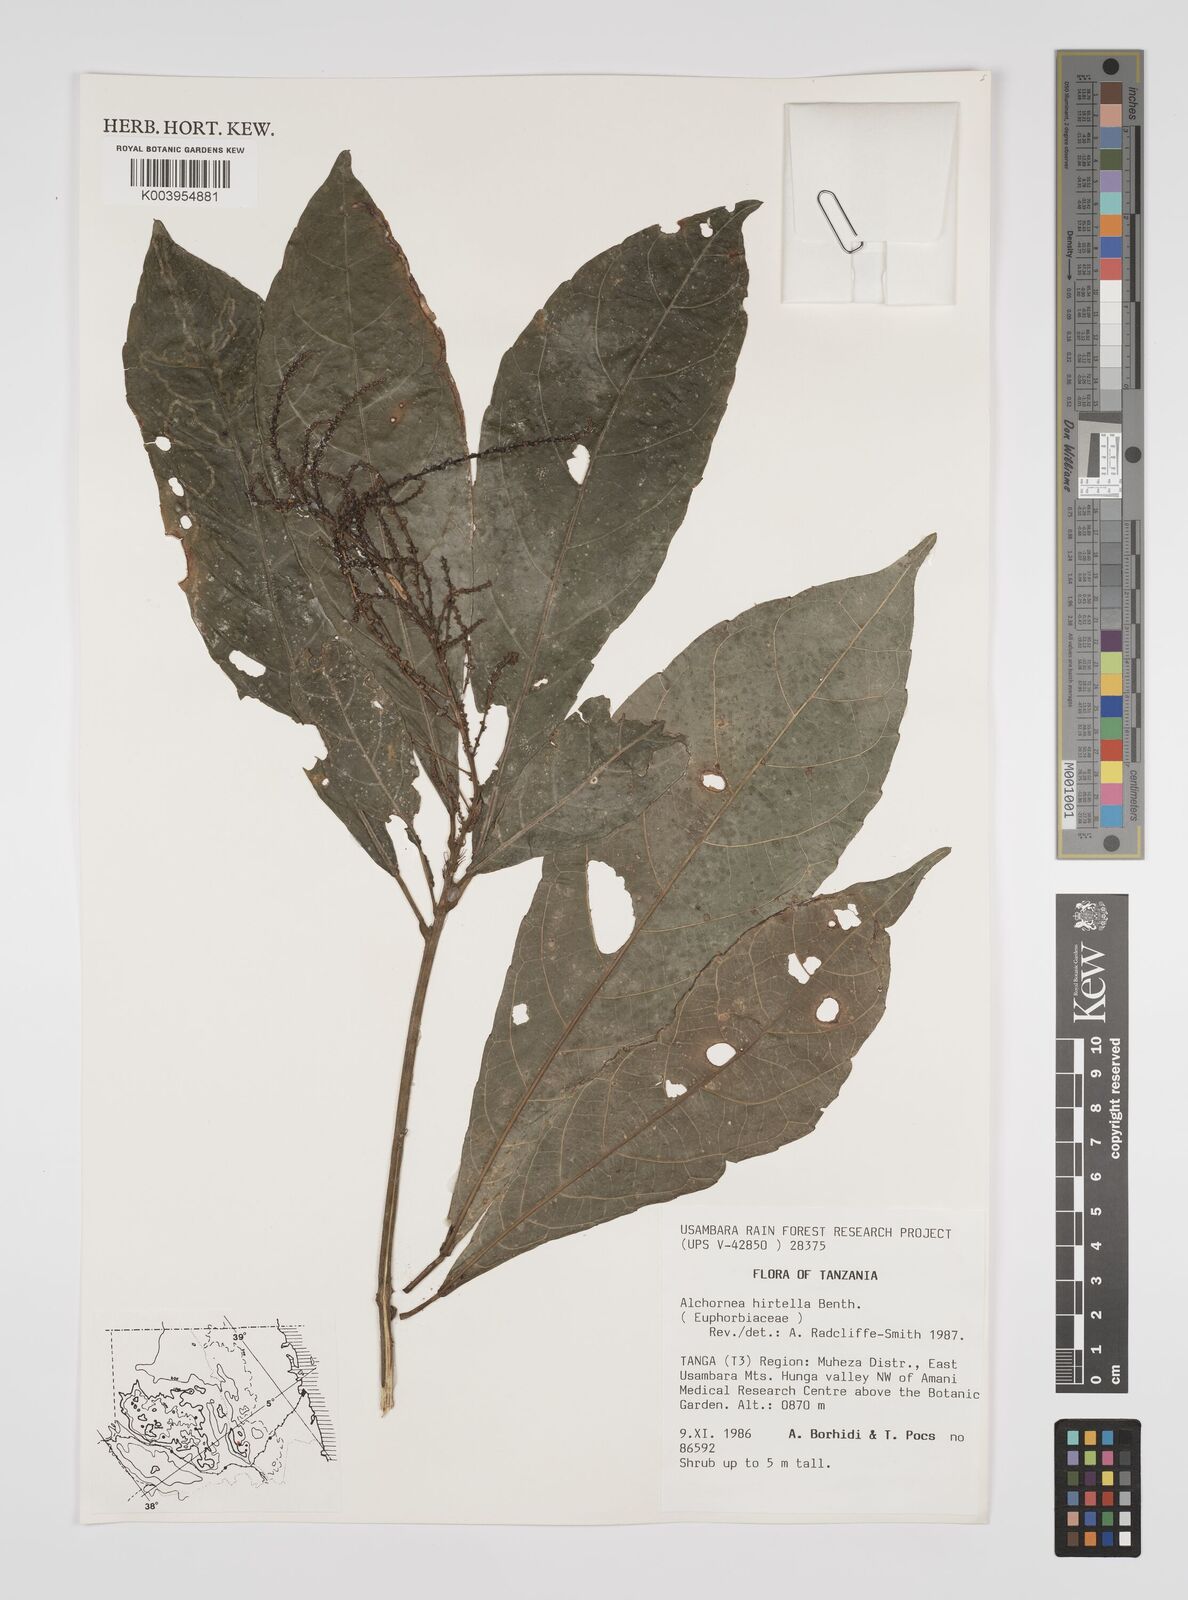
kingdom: Plantae
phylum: Tracheophyta
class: Magnoliopsida
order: Malpighiales
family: Euphorbiaceae
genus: Alchornea
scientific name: Alchornea hirtella
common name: Forest bead-string
